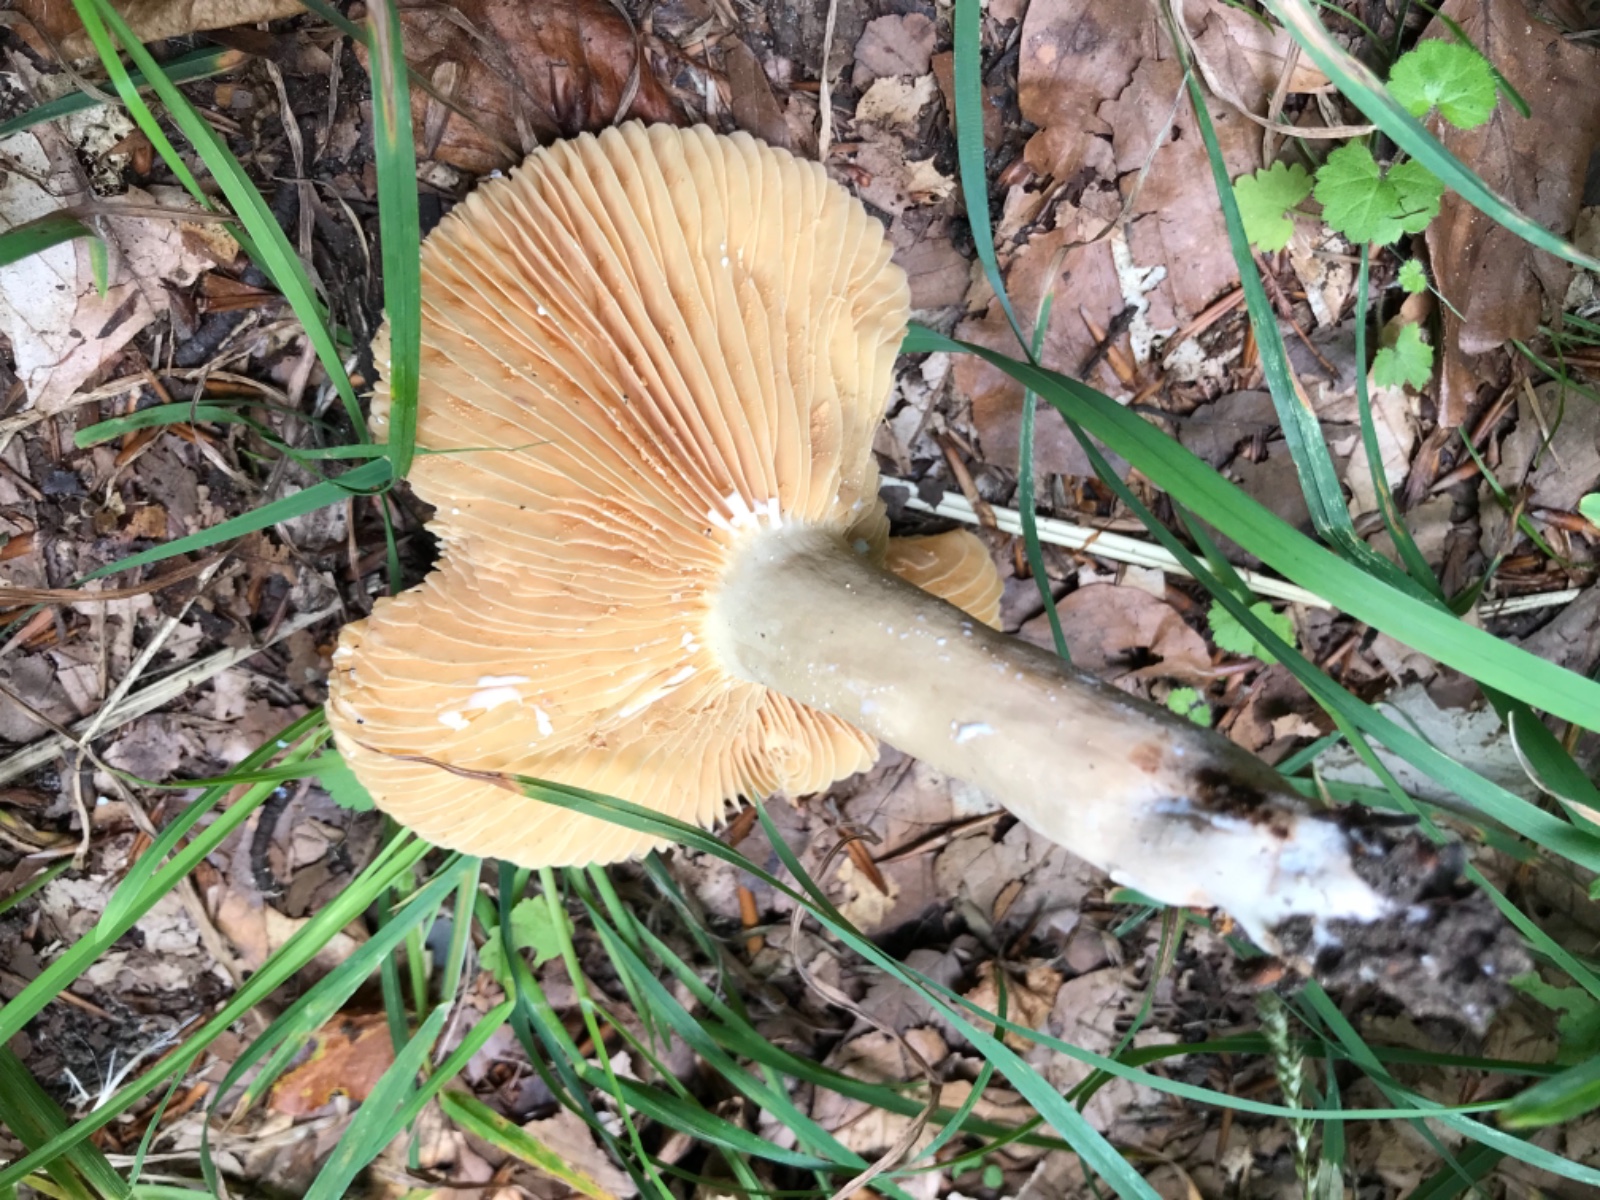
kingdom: Fungi
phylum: Basidiomycota
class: Agaricomycetes
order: Russulales
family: Russulaceae
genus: Lactarius
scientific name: Lactarius pterosporus
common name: vingesporet mælkehat
